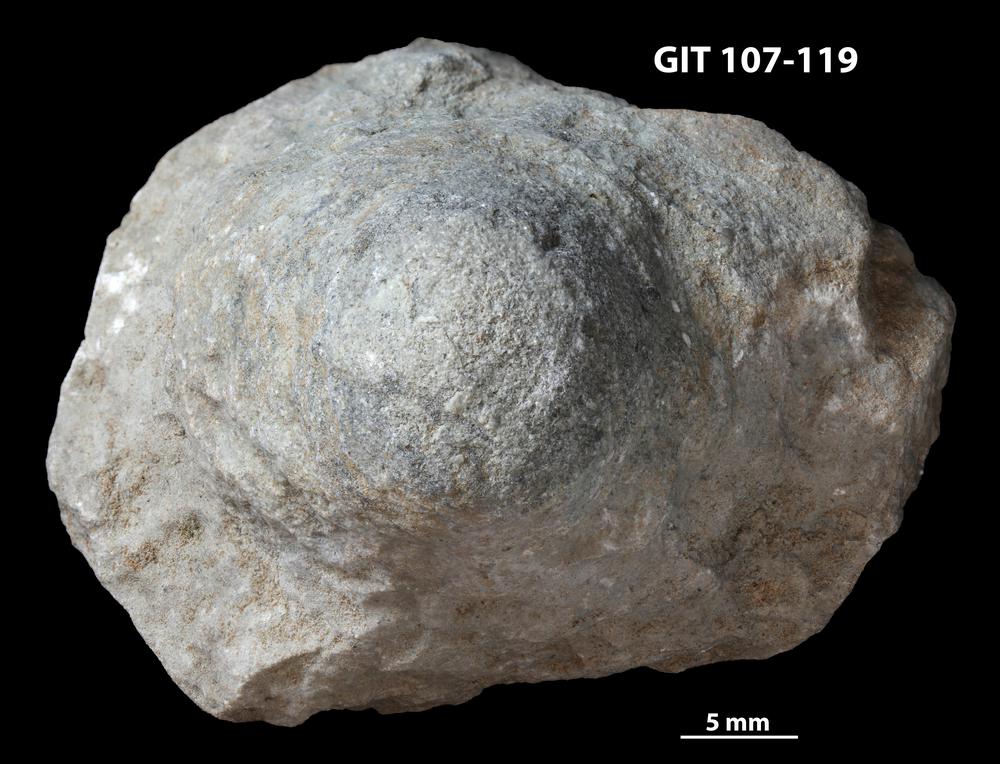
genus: Conichnus
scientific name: Conichnus
